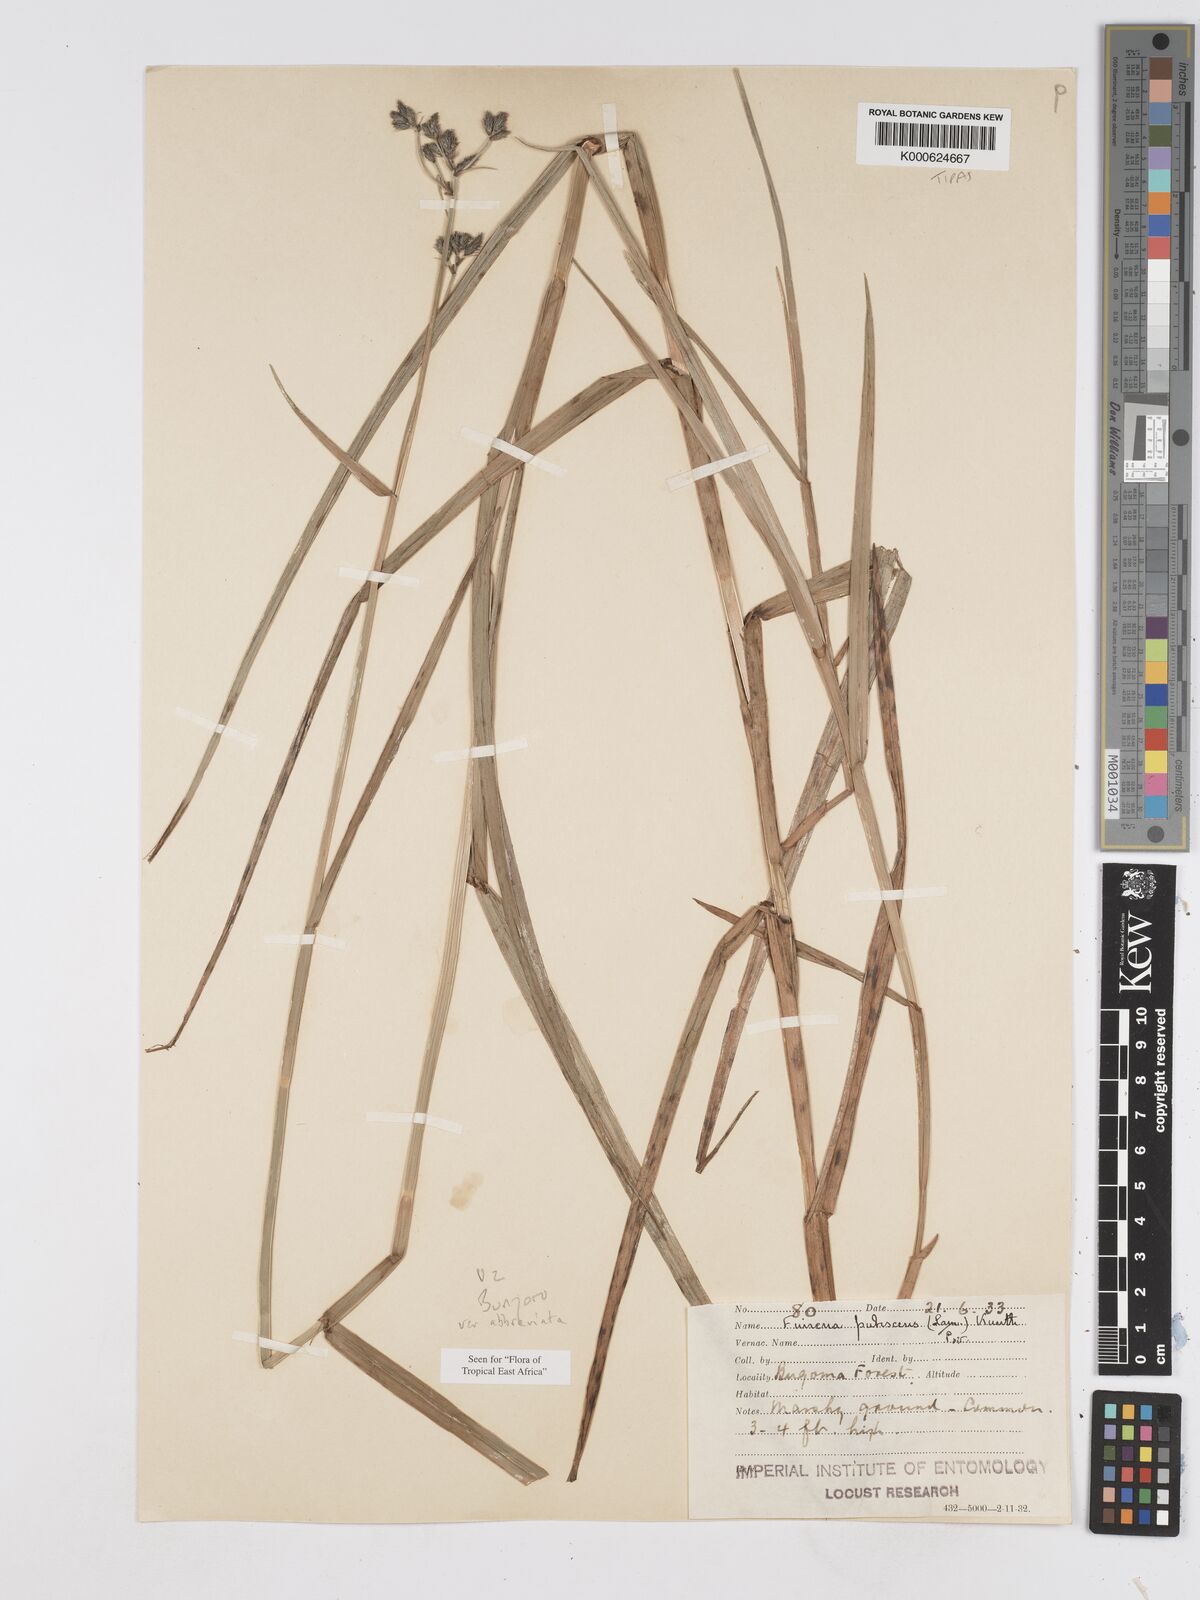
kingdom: Plantae
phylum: Tracheophyta
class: Liliopsida
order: Poales
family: Cyperaceae
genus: Fuirena
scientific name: Fuirena pubescens
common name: Hairy sedge
